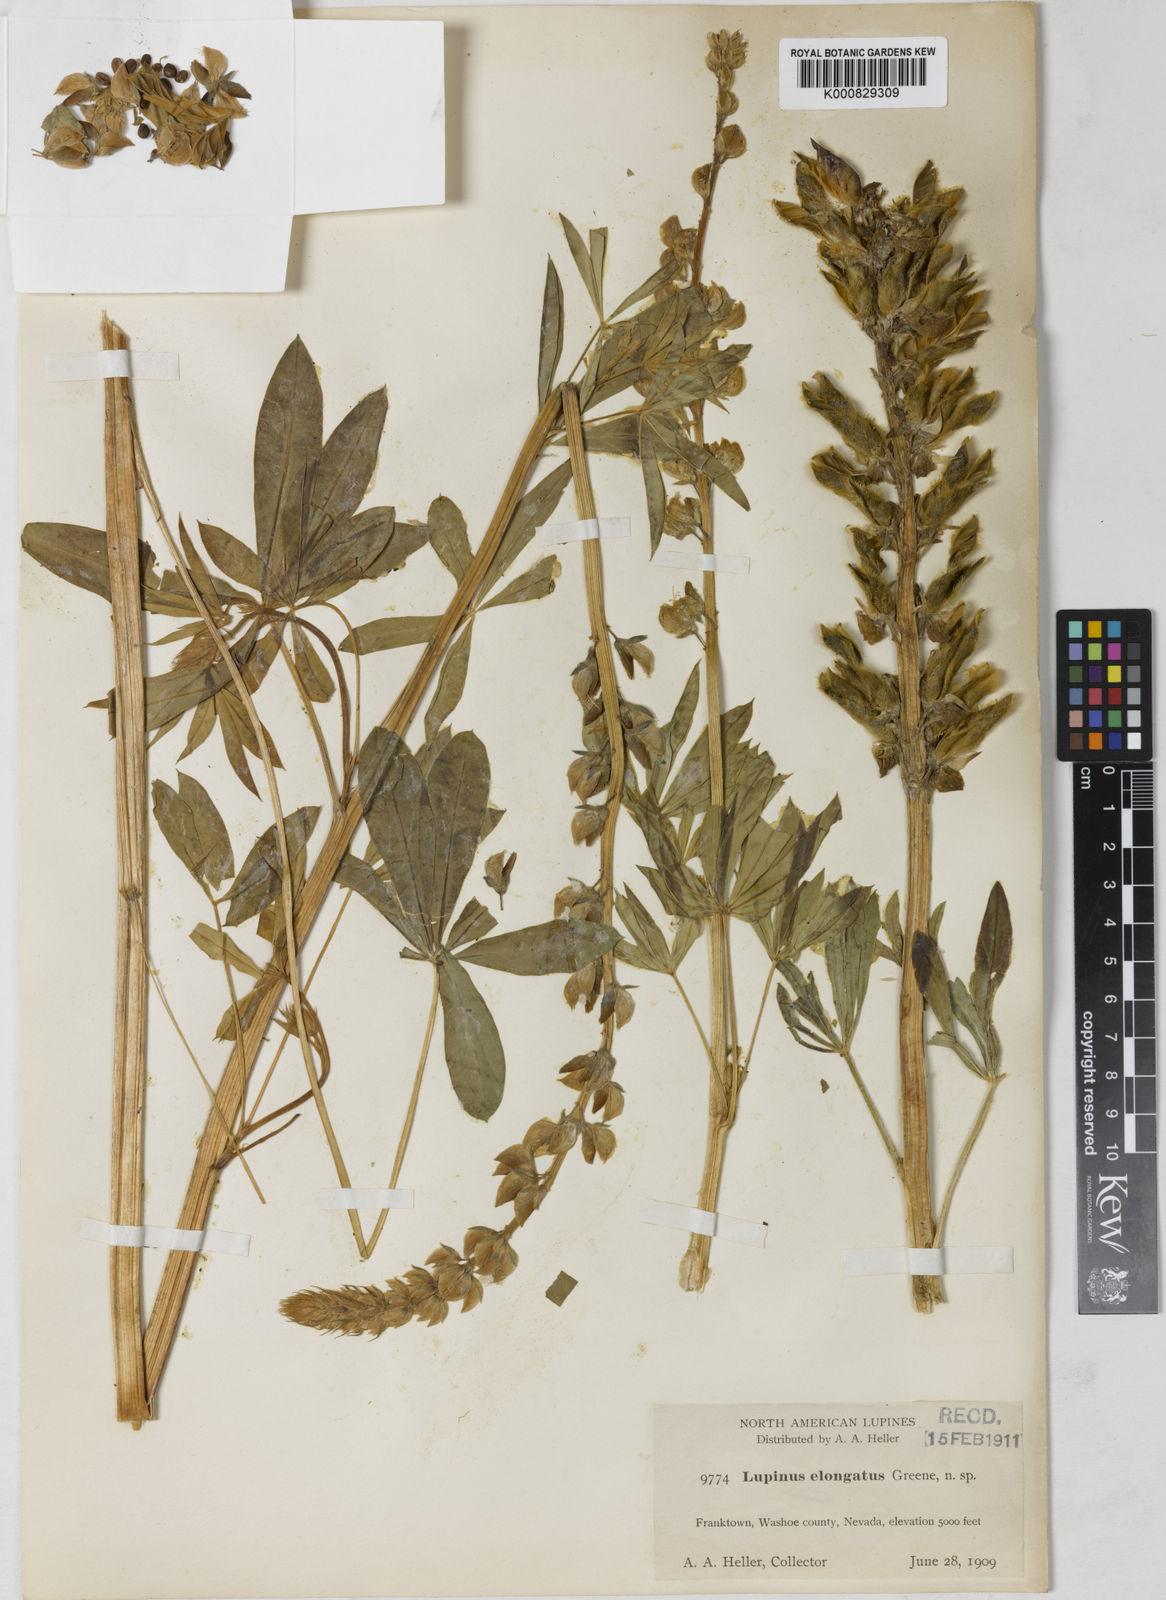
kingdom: Plantae
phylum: Tracheophyta
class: Magnoliopsida
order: Fabales
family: Fabaceae
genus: Lupinus
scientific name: Lupinus polyphyllus
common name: Garden lupin
